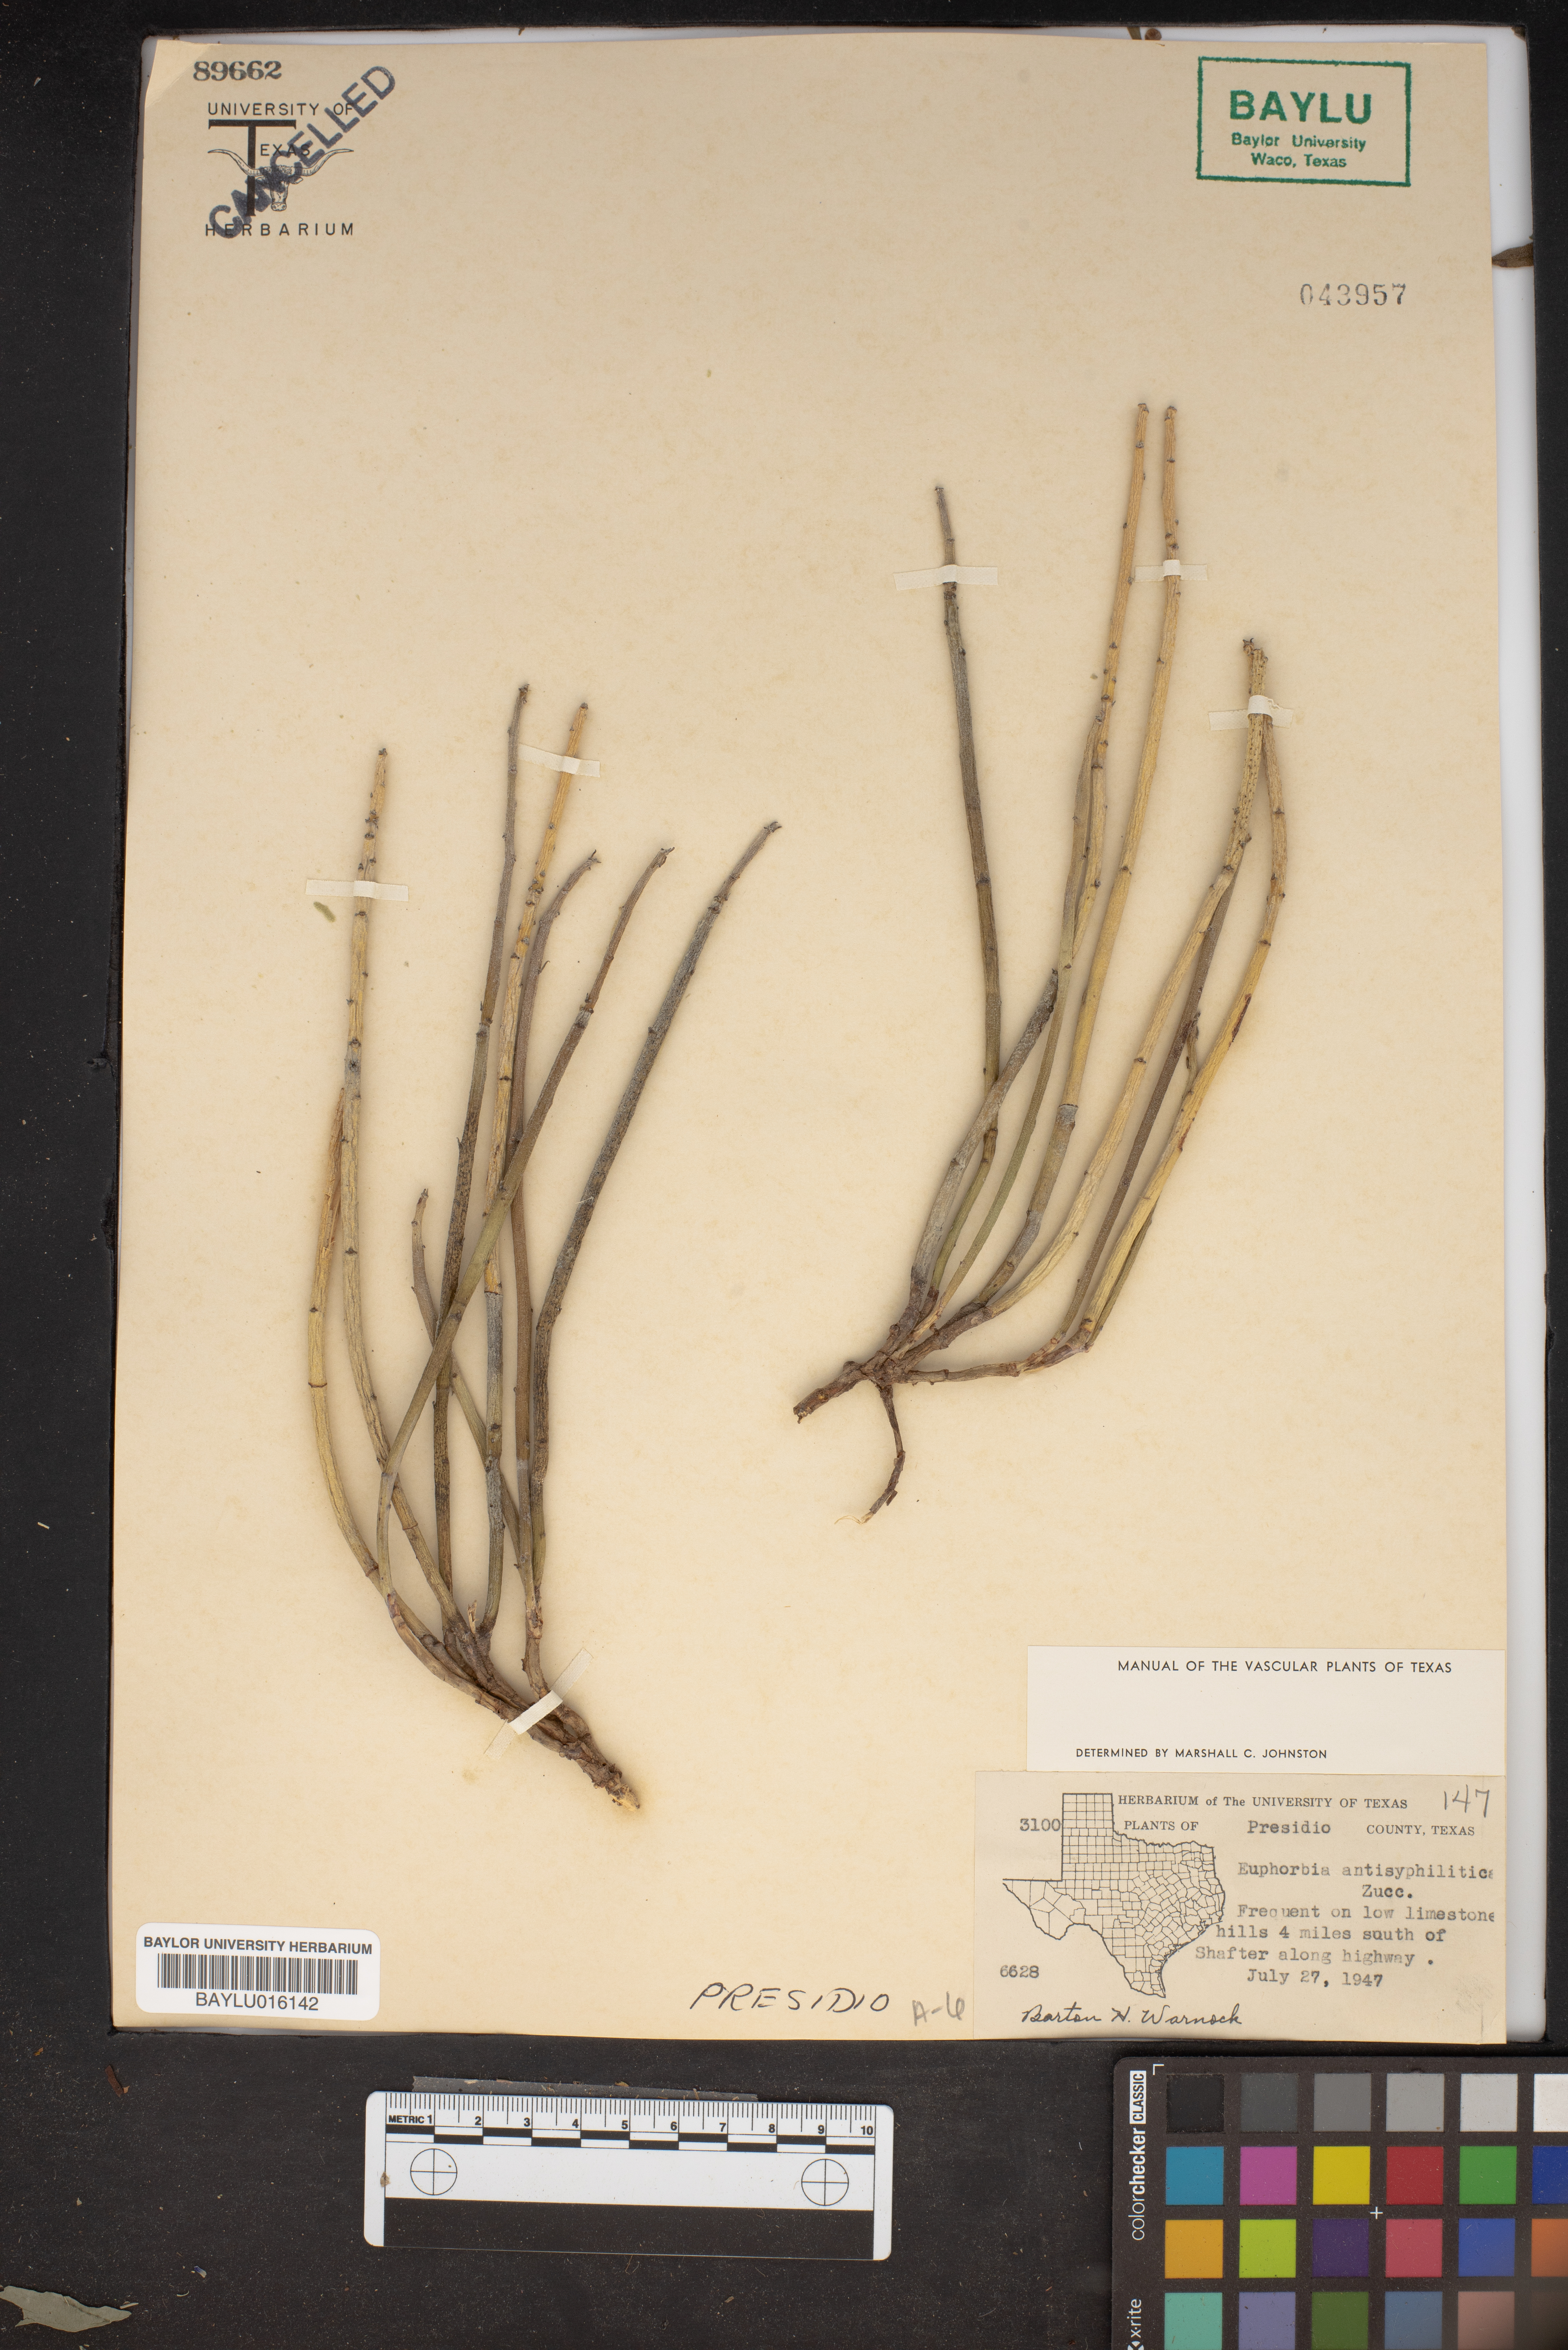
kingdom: Plantae
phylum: Tracheophyta
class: Magnoliopsida
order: Malpighiales
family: Euphorbiaceae
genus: Euphorbia
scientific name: Euphorbia antisyphilitica
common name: Candelilla
